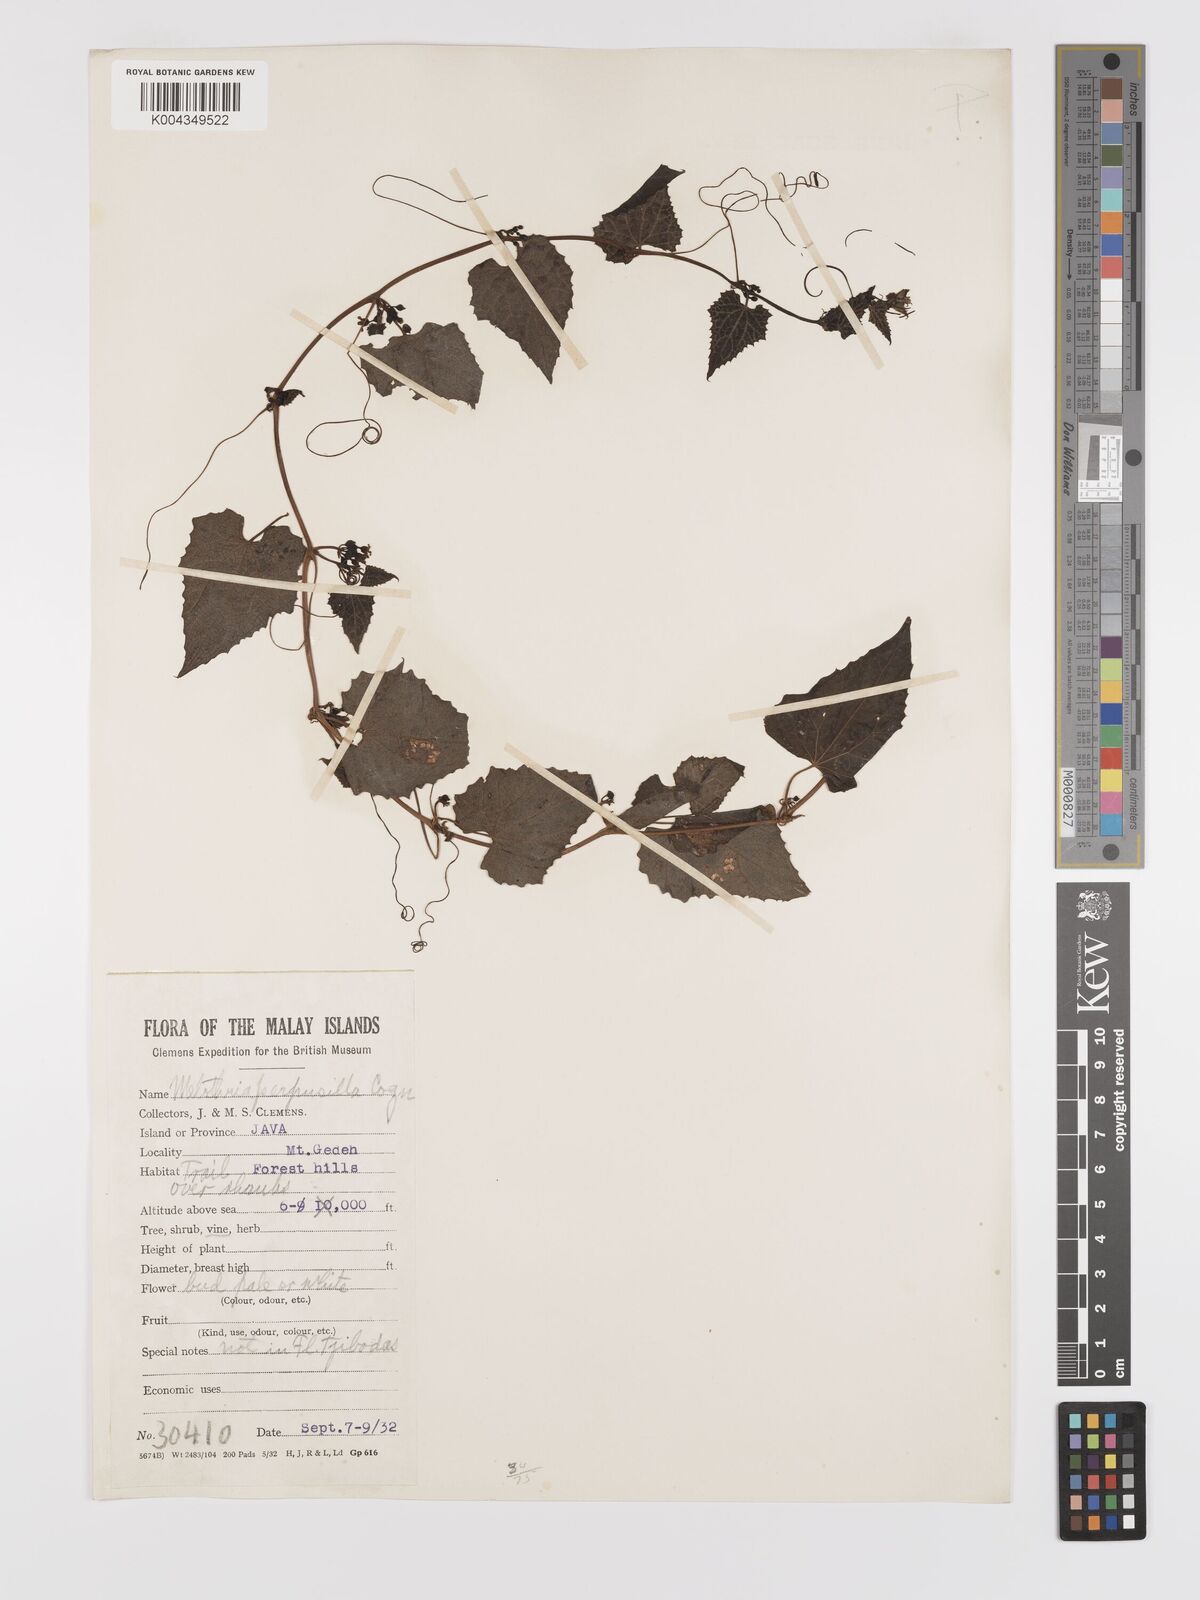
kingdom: Plantae
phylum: Tracheophyta
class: Magnoliopsida
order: Cucurbitales
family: Cucurbitaceae
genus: Zehneria
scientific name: Zehneria scabra
